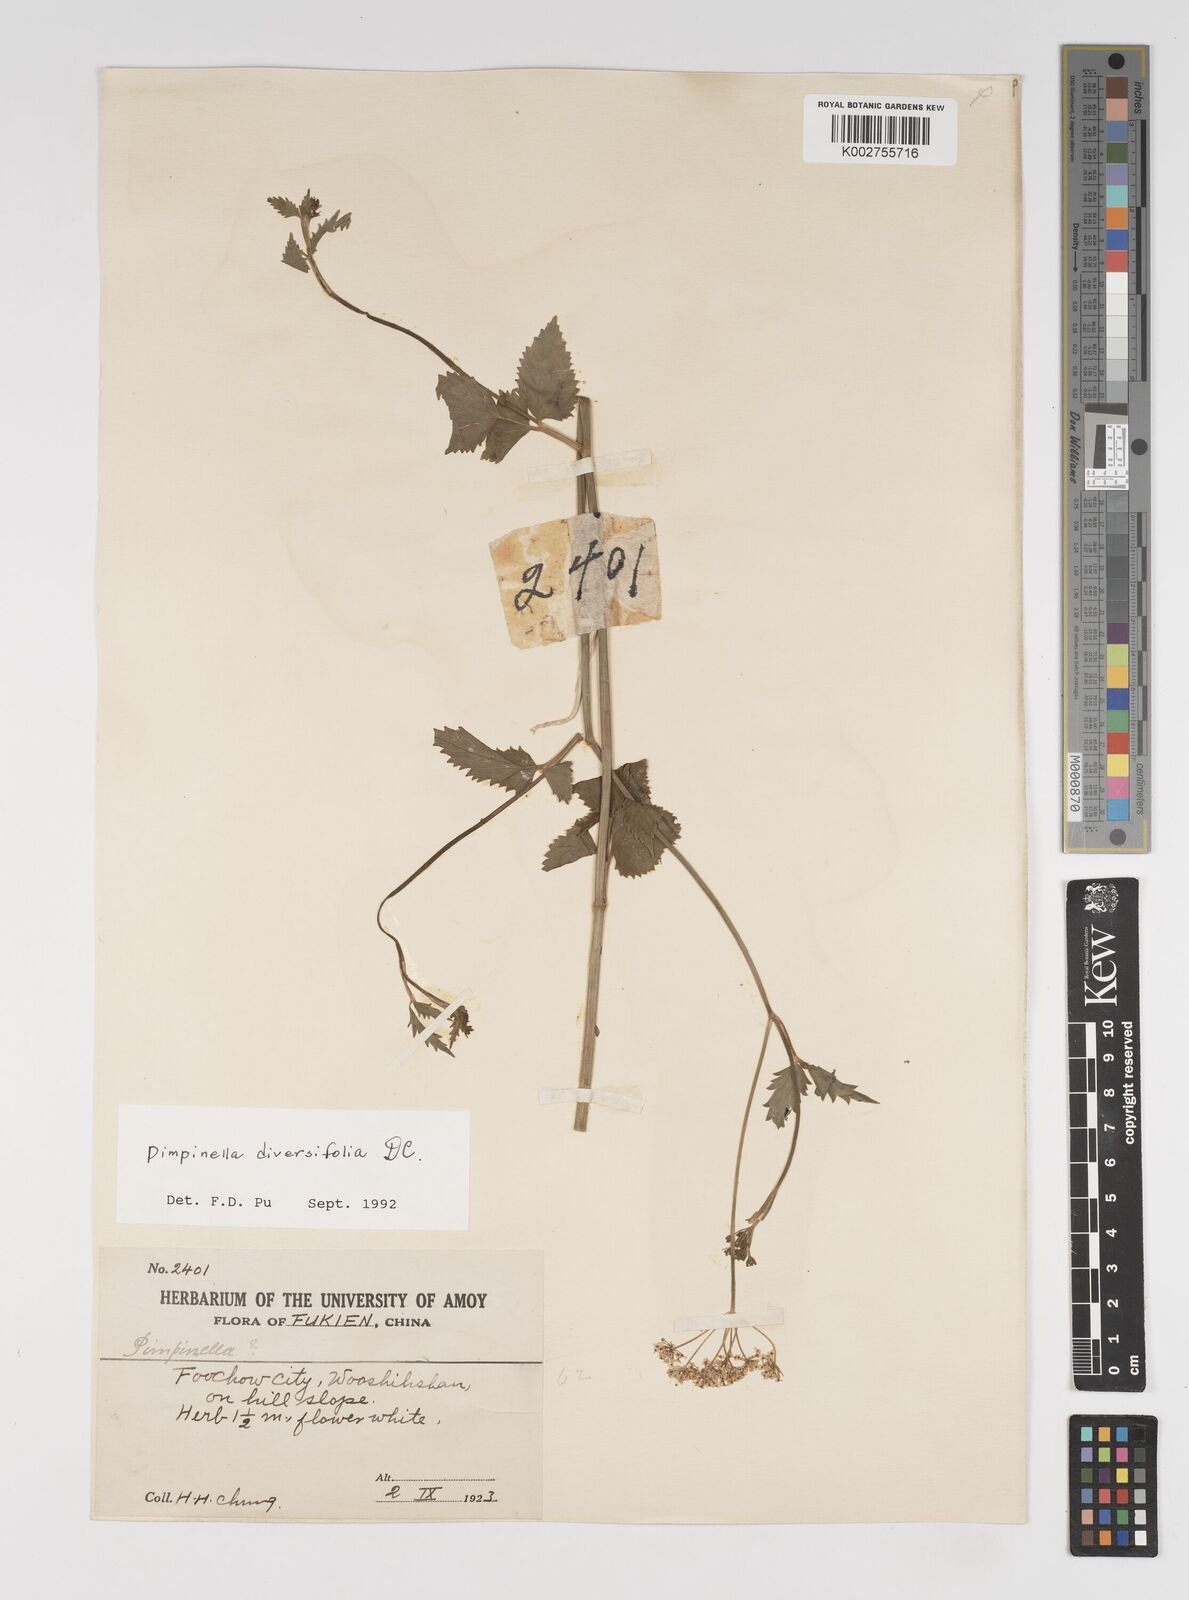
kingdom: Plantae
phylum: Tracheophyta
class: Magnoliopsida
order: Apiales
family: Apiaceae
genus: Pimpinella
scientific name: Pimpinella diversifolia
